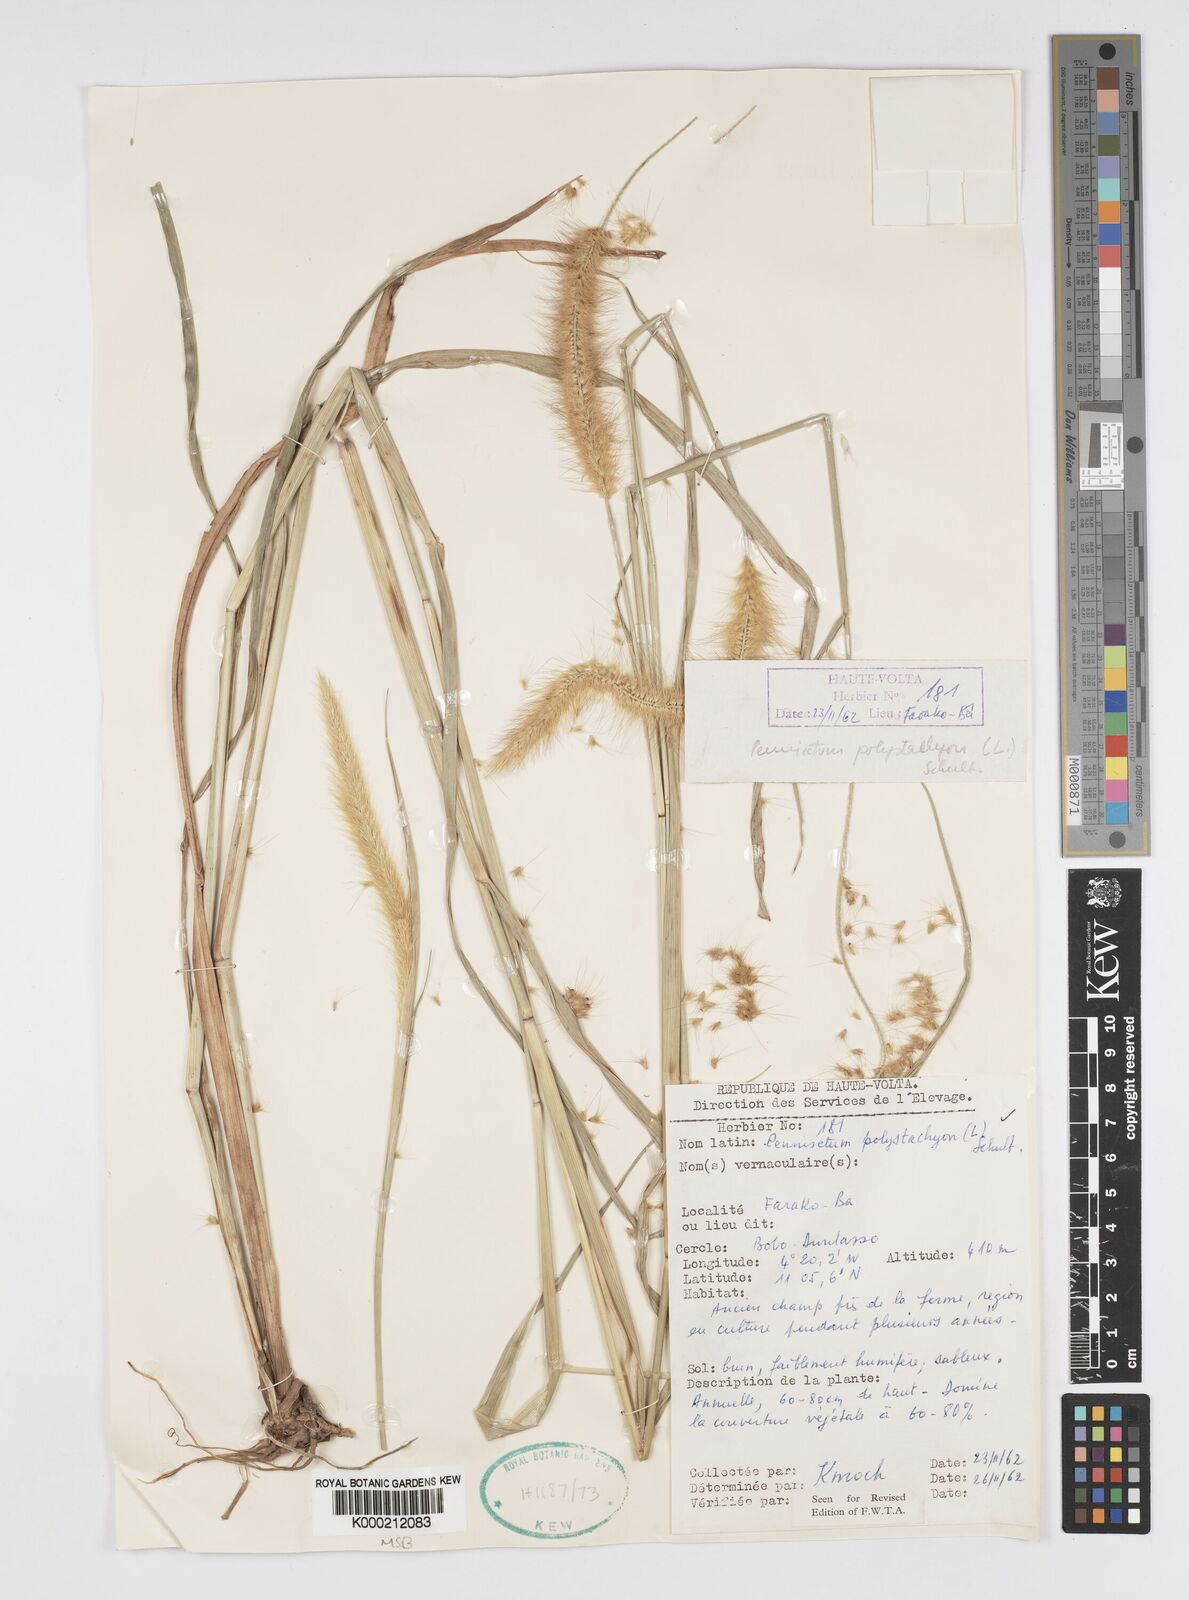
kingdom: Plantae
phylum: Tracheophyta
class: Liliopsida
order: Poales
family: Poaceae
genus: Setaria
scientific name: Setaria parviflora
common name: Knotroot bristle-grass
